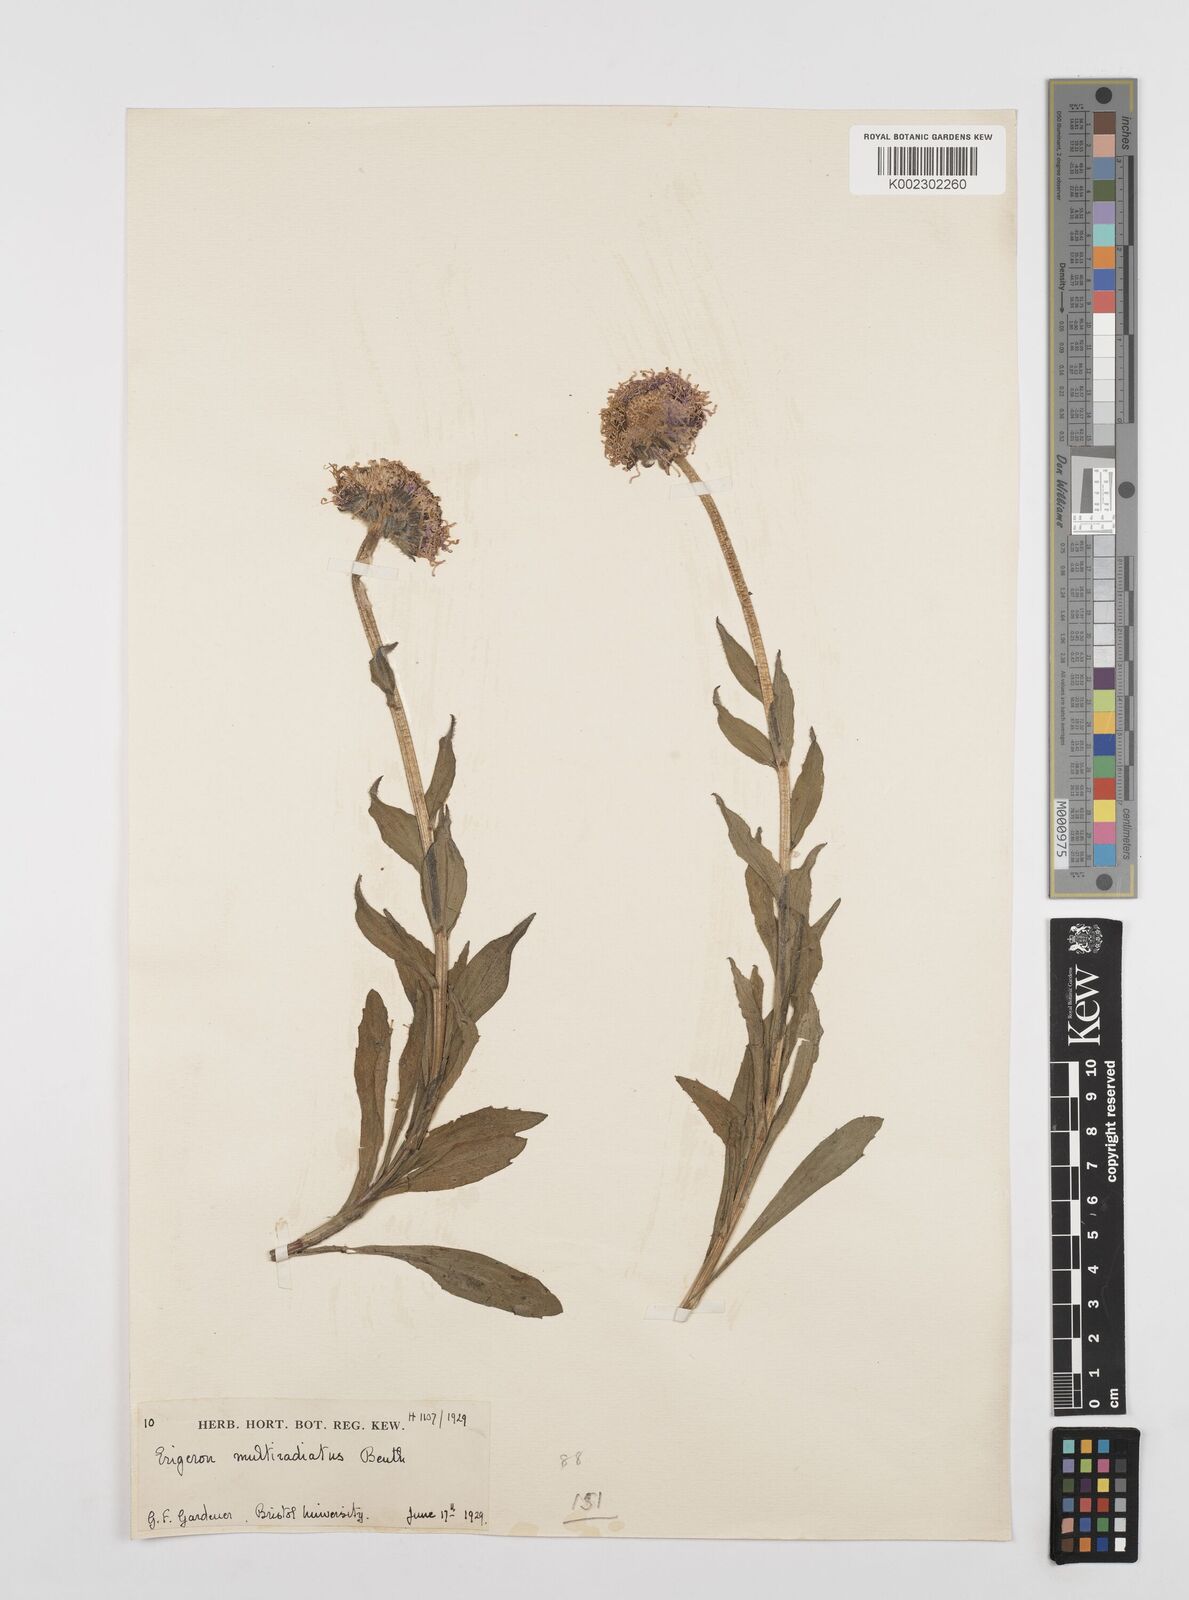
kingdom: Plantae
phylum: Tracheophyta
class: Magnoliopsida
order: Asterales
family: Asteraceae
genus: Erigeron
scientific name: Erigeron multiradiatus
